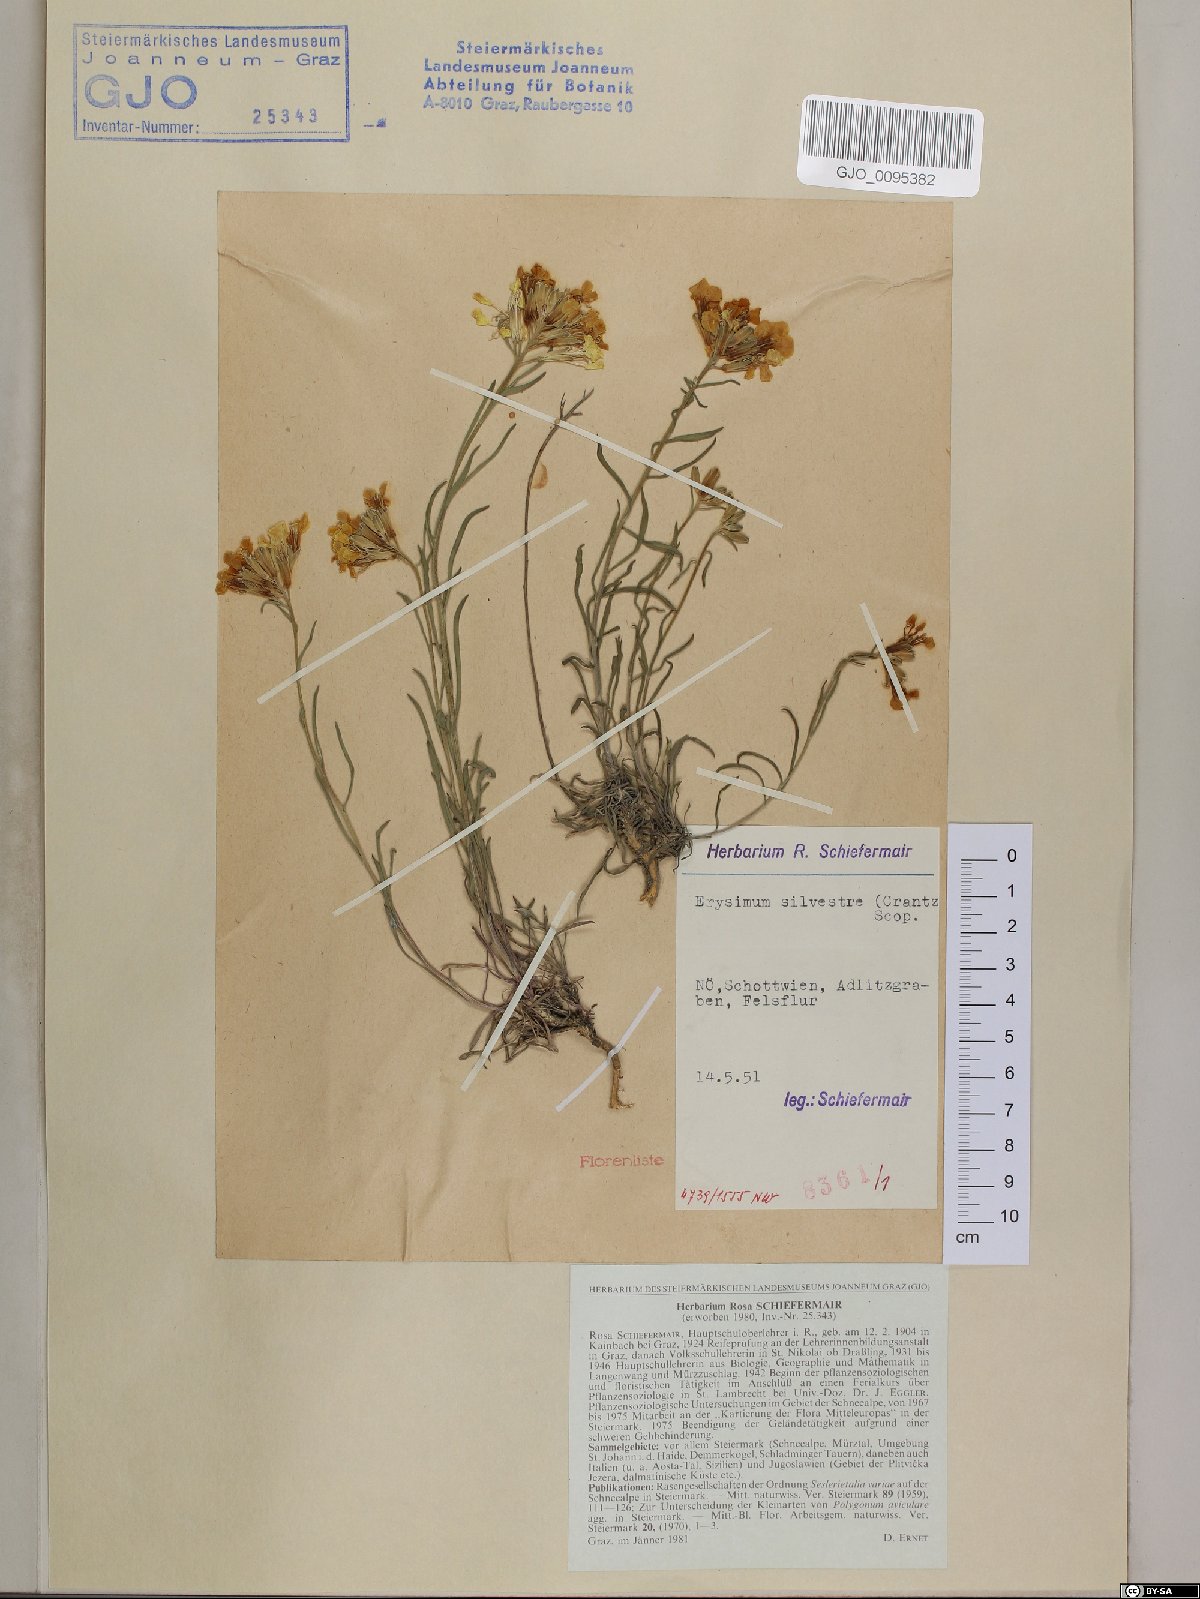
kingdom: Plantae
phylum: Tracheophyta
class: Magnoliopsida
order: Brassicales
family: Brassicaceae
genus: Erysimum
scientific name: Erysimum sylvestre
